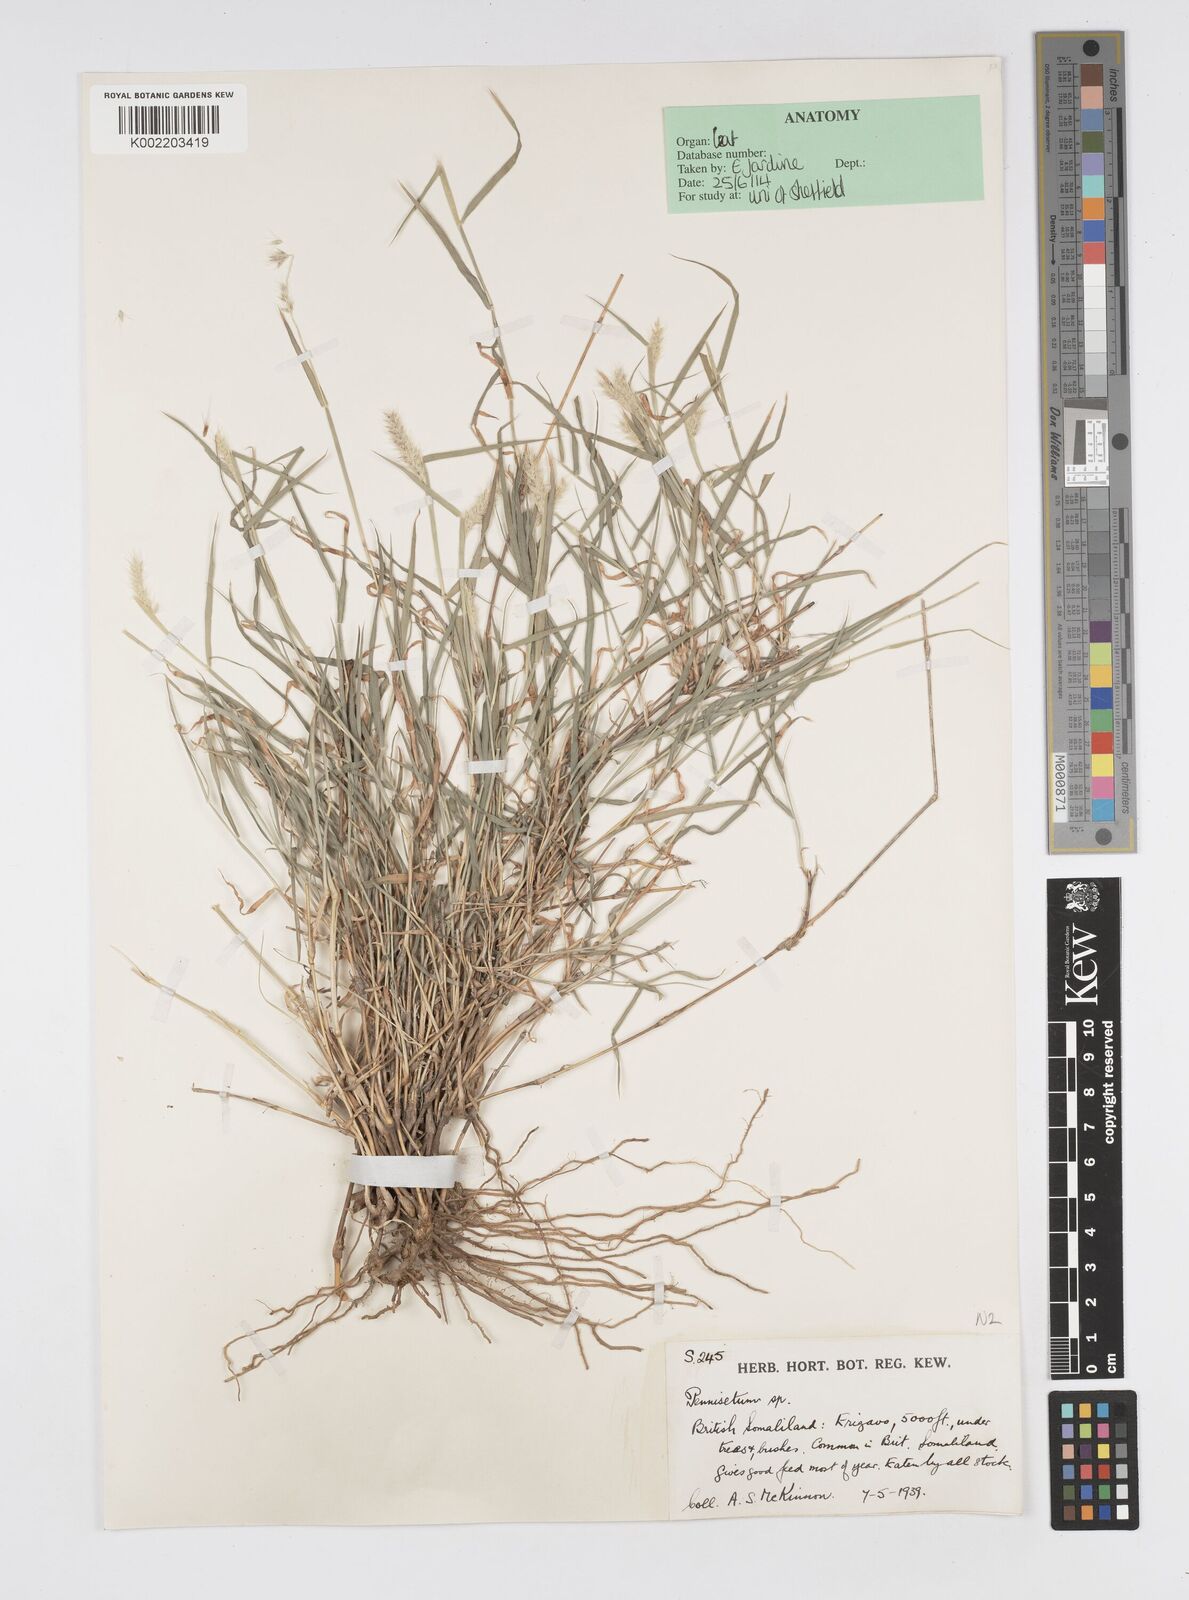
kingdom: Plantae
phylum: Tracheophyta
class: Liliopsida
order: Poales
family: Poaceae
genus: Cenchrus
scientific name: Cenchrus stramineus
